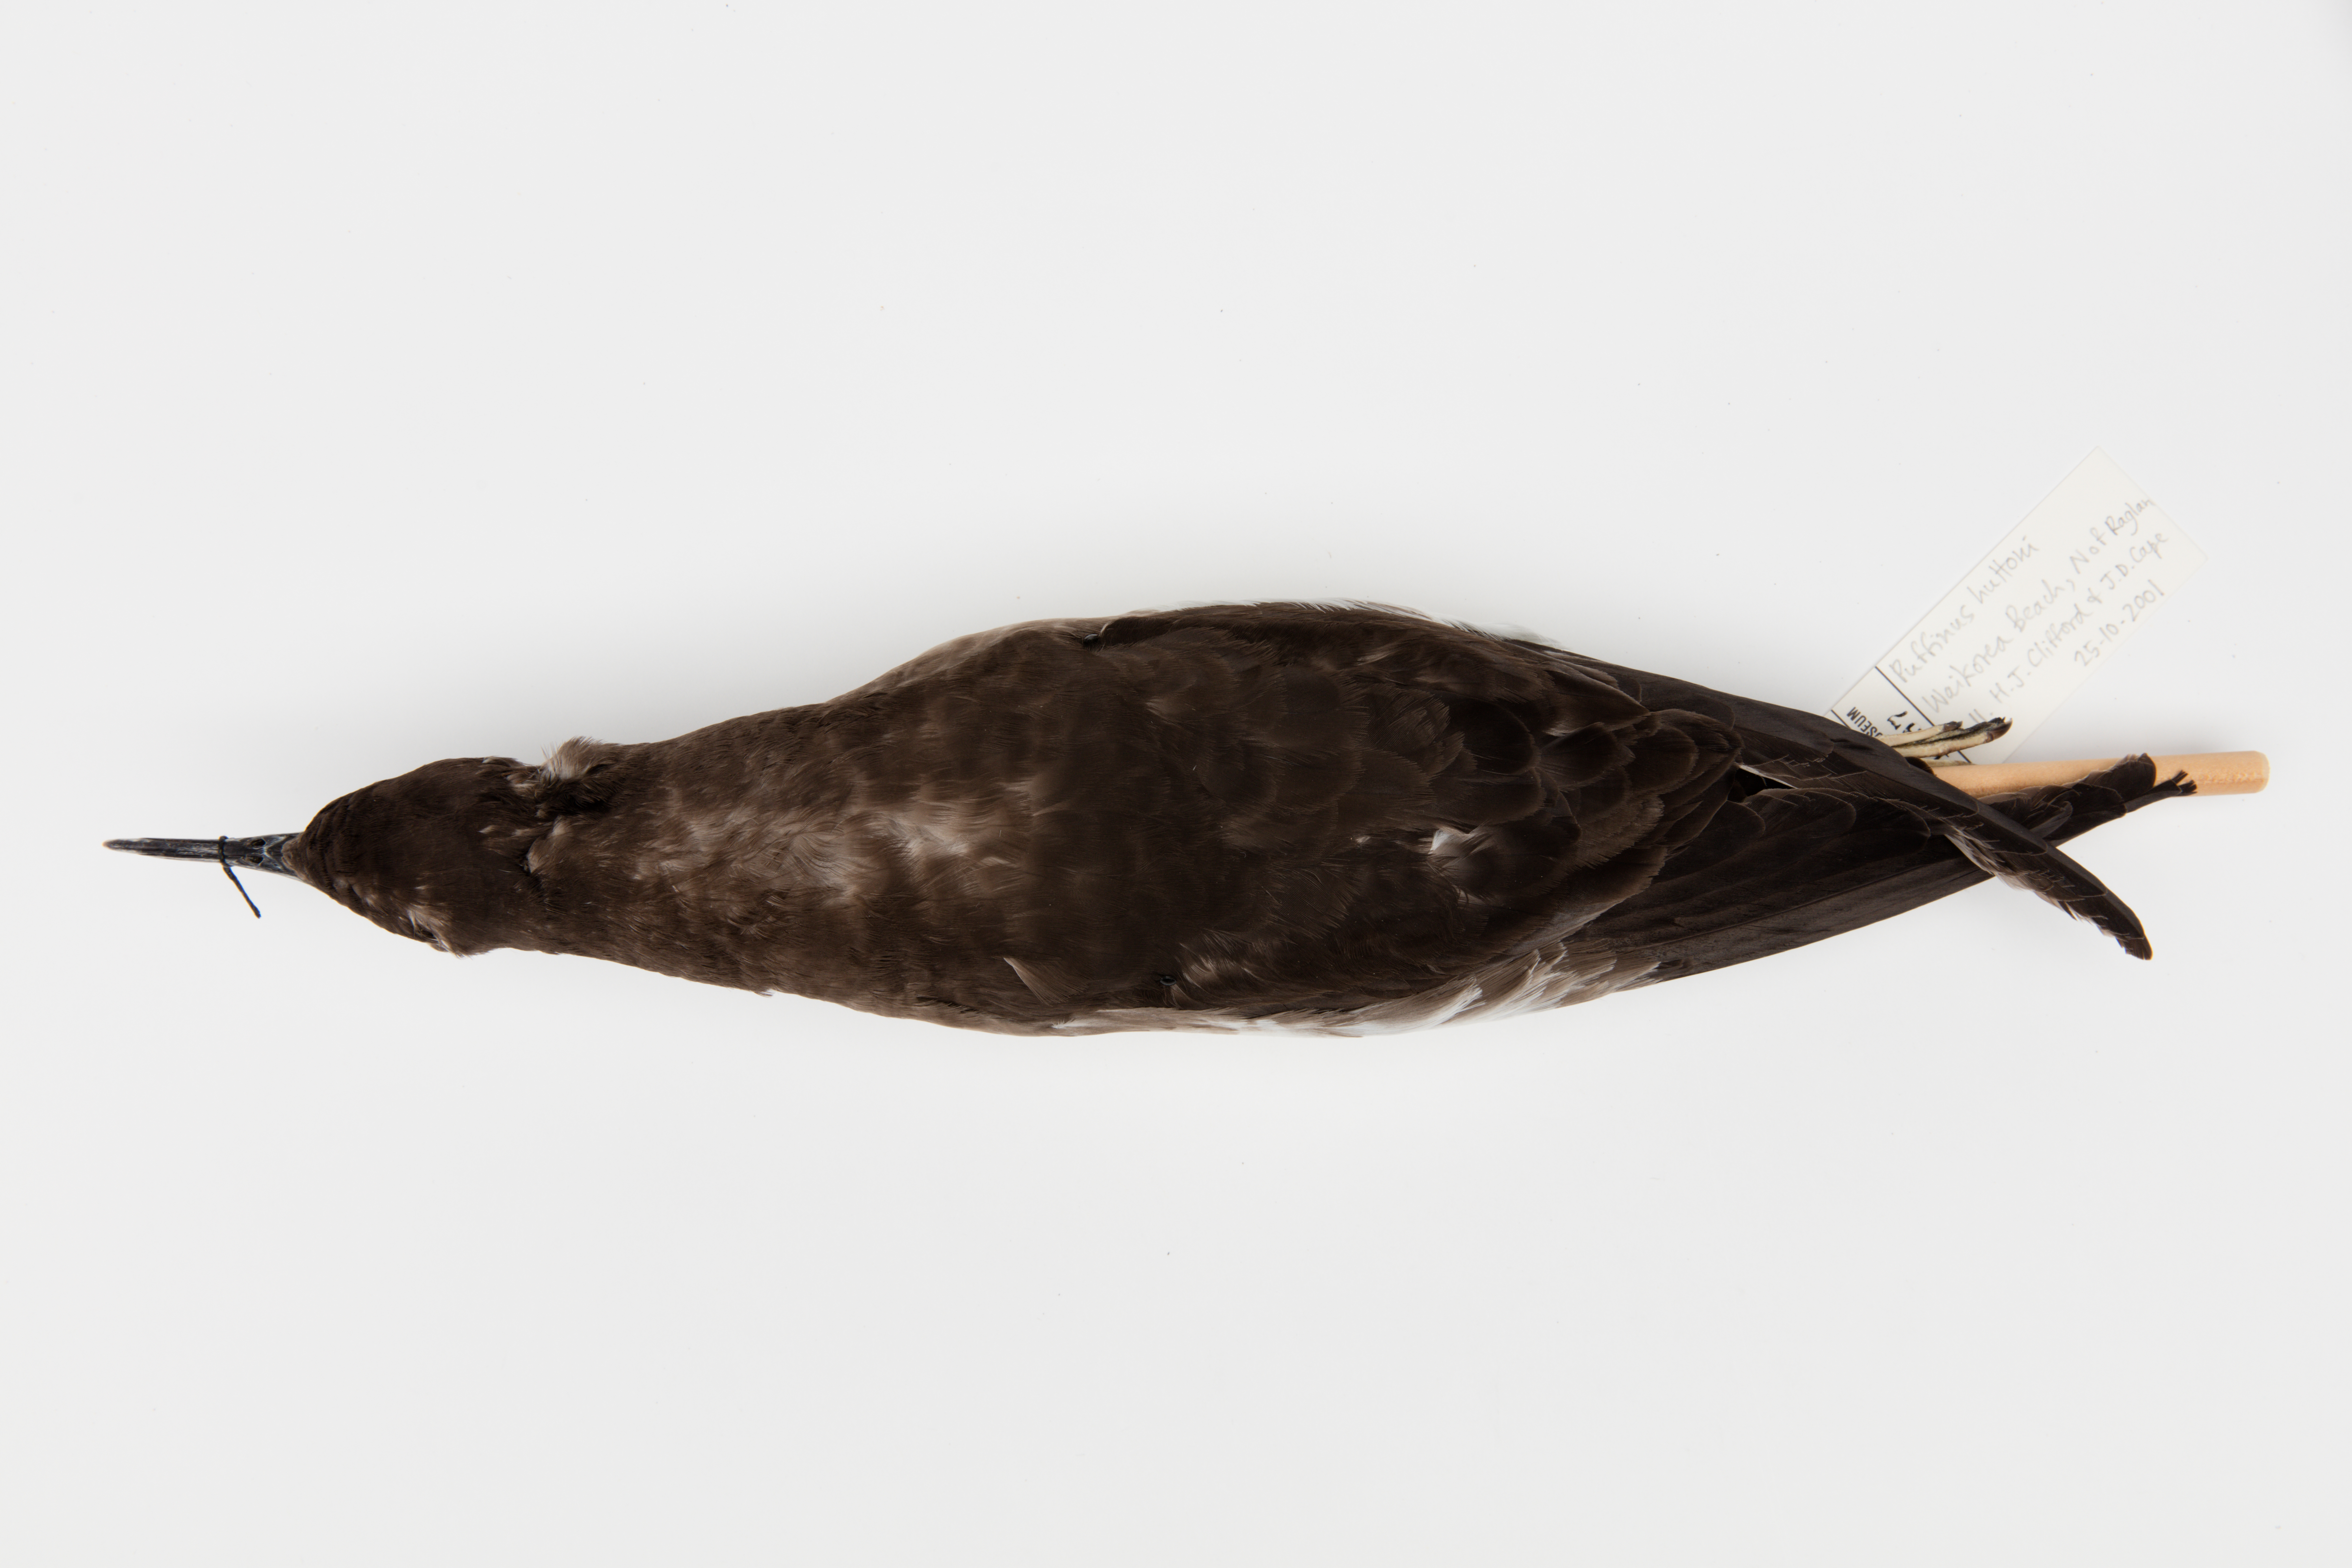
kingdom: Animalia
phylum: Chordata
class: Aves
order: Procellariiformes
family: Procellariidae
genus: Puffinus
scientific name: Puffinus huttoni
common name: Hutton's shearwater
